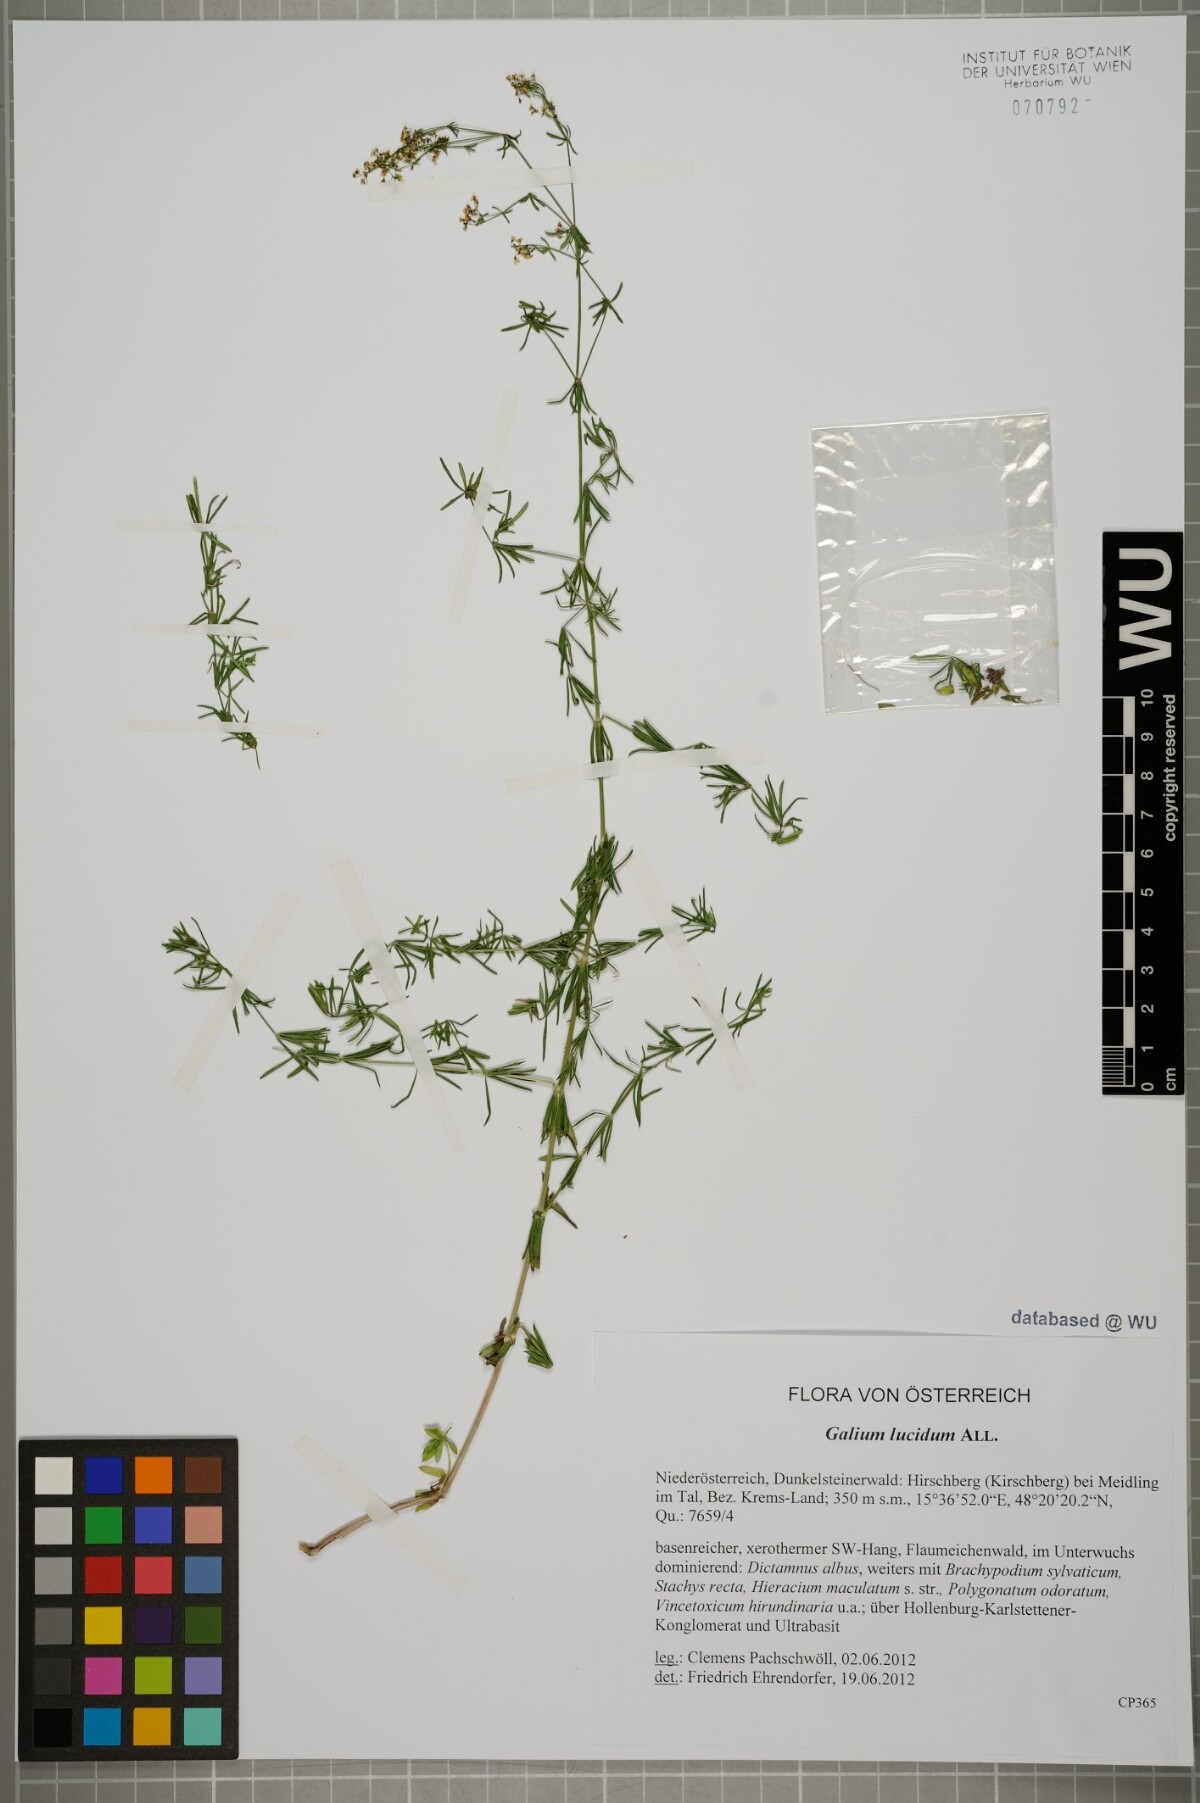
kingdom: Plantae
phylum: Tracheophyta
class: Magnoliopsida
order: Gentianales
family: Rubiaceae
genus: Galium
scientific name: Galium lucidum
